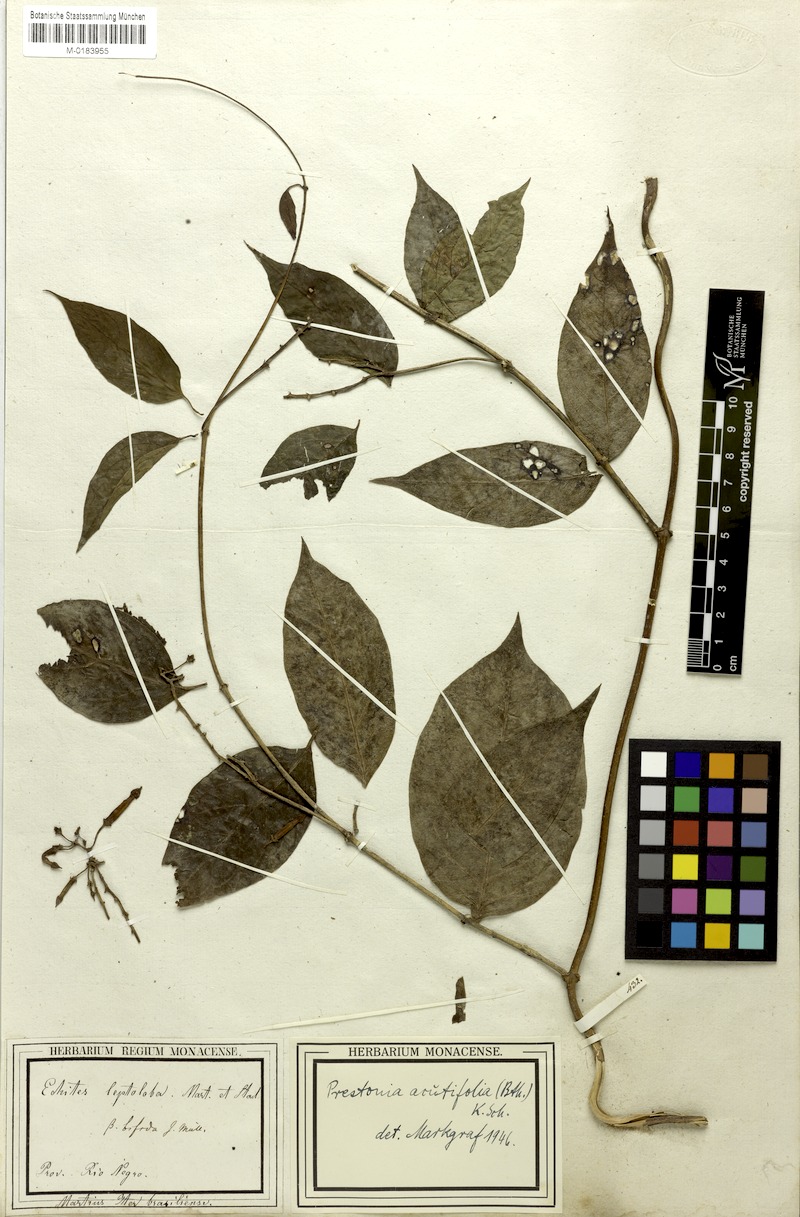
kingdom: Plantae
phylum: Tracheophyta
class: Magnoliopsida
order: Gentianales
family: Apocynaceae
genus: Prestonia
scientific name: Prestonia quinquangularis
